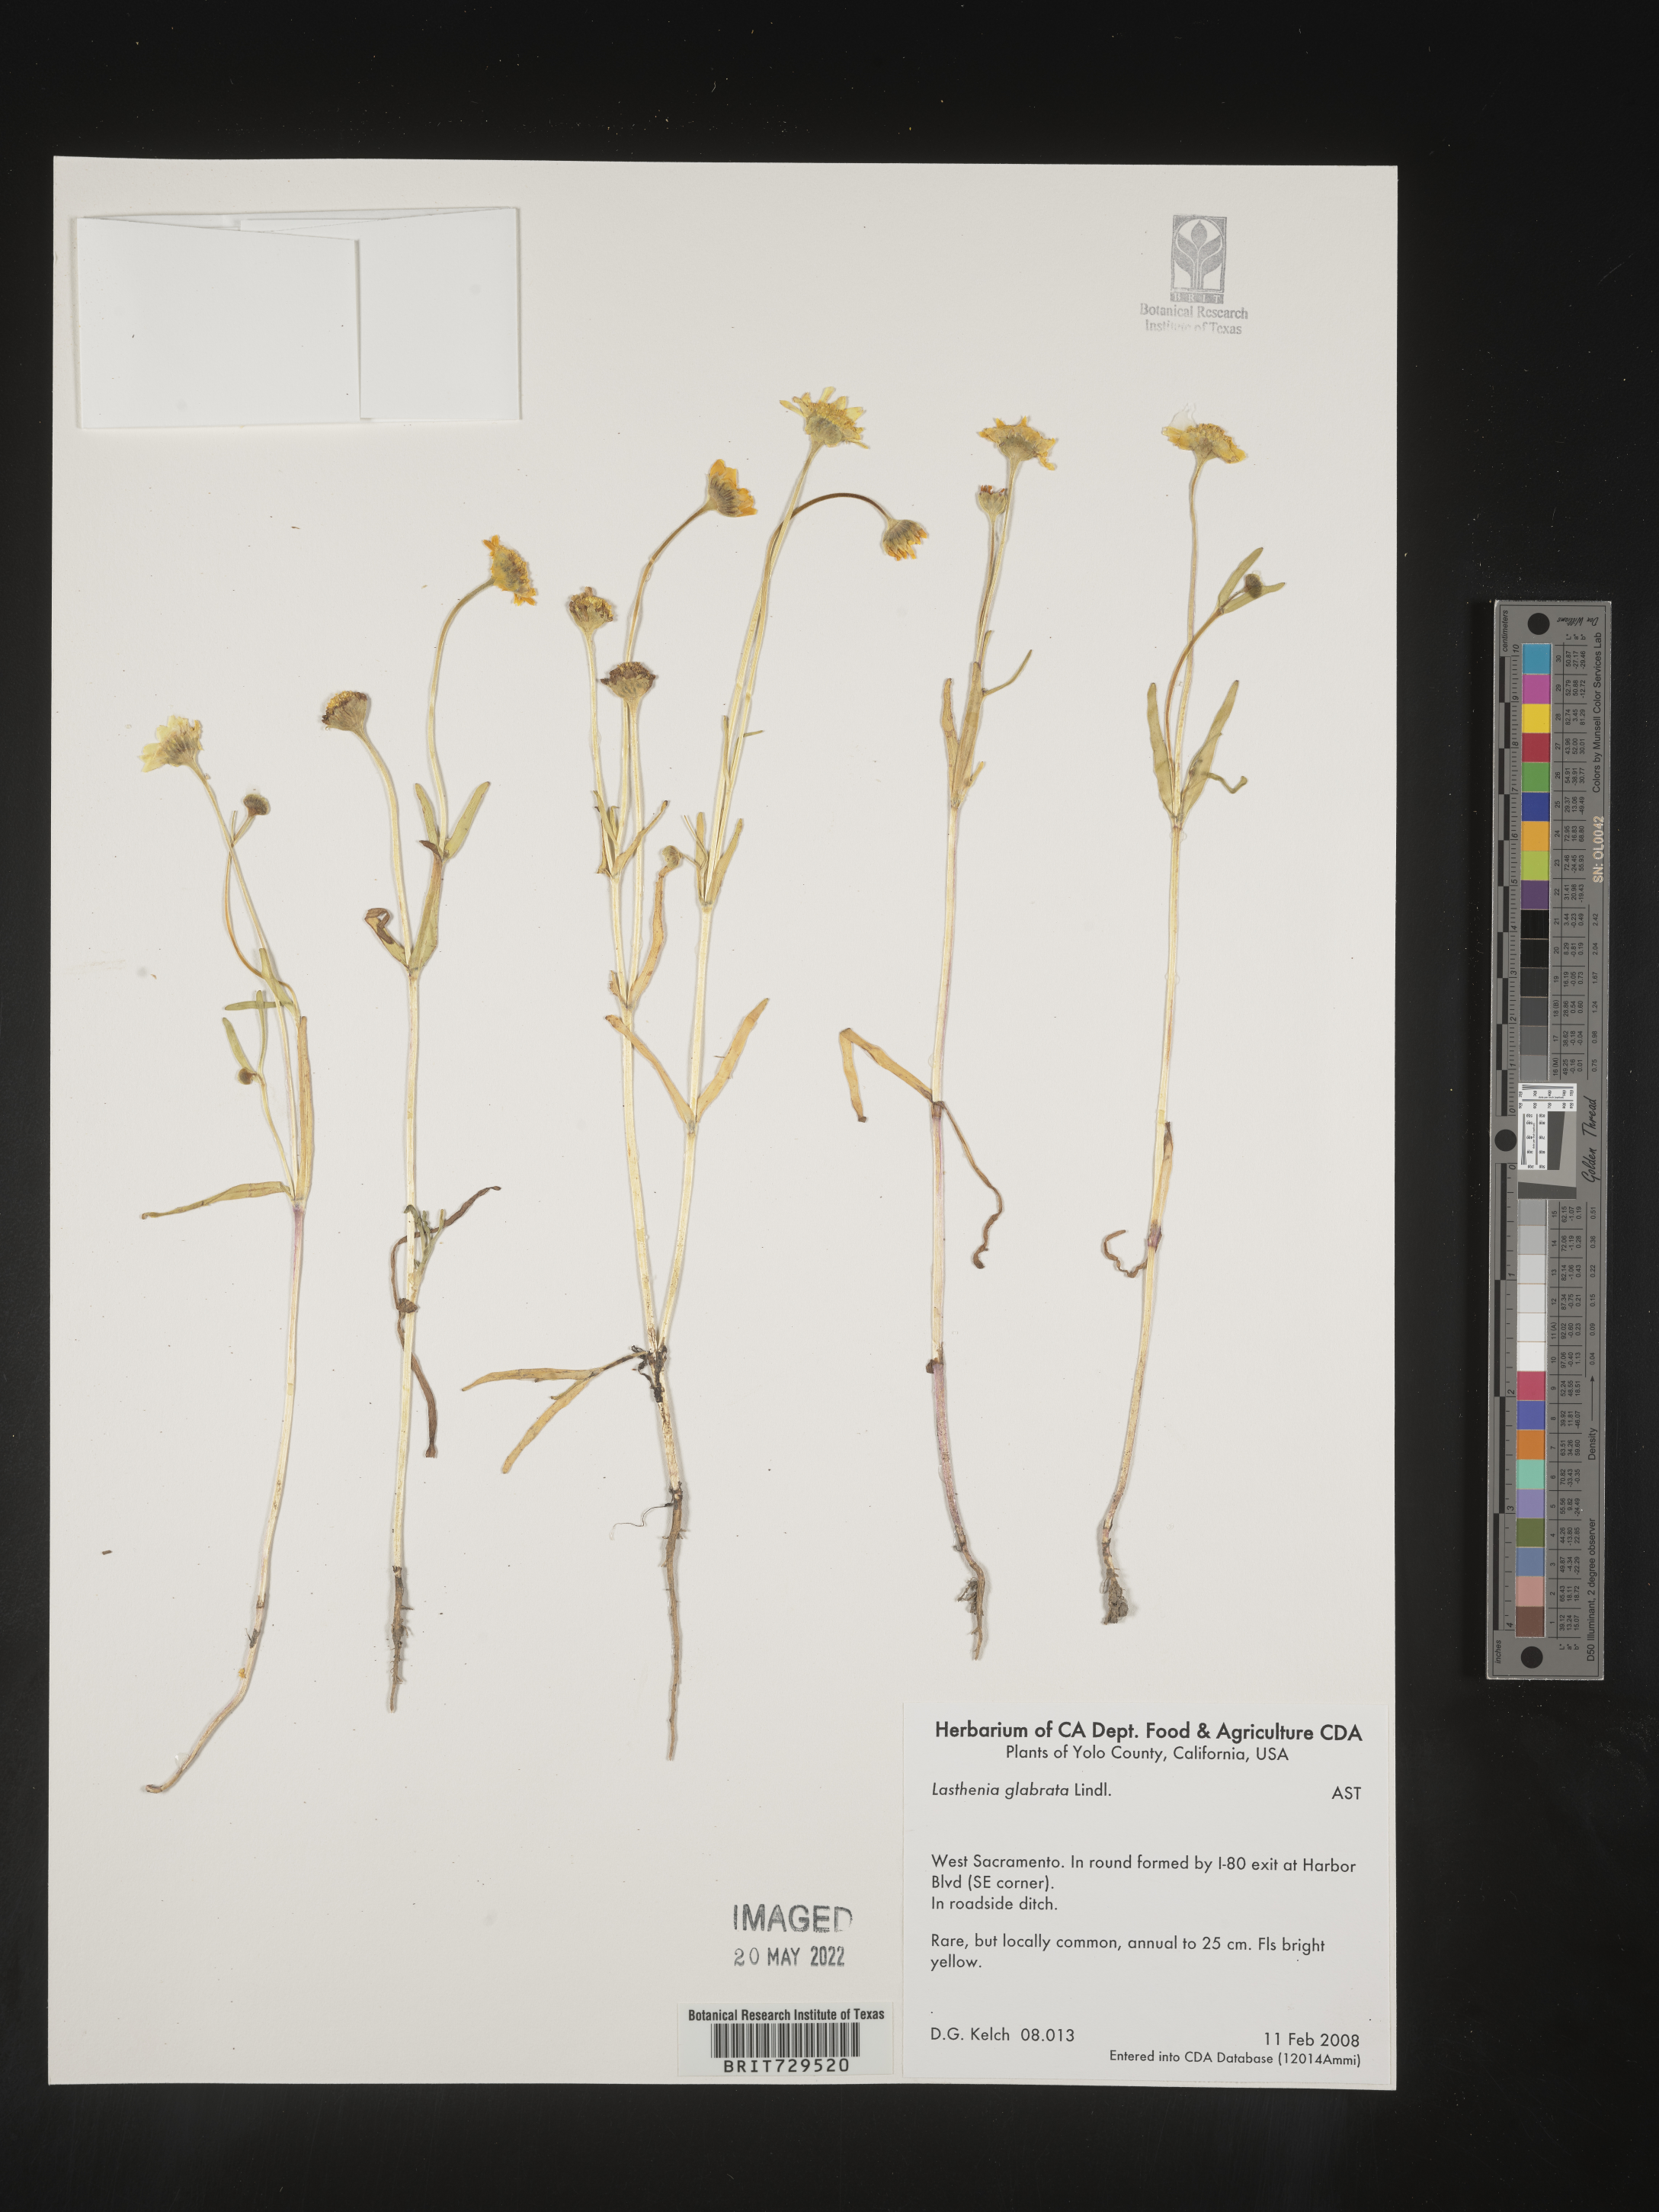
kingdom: Plantae
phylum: Tracheophyta
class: Magnoliopsida
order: Asterales
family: Asteraceae
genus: Lasthenia
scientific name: Lasthenia
